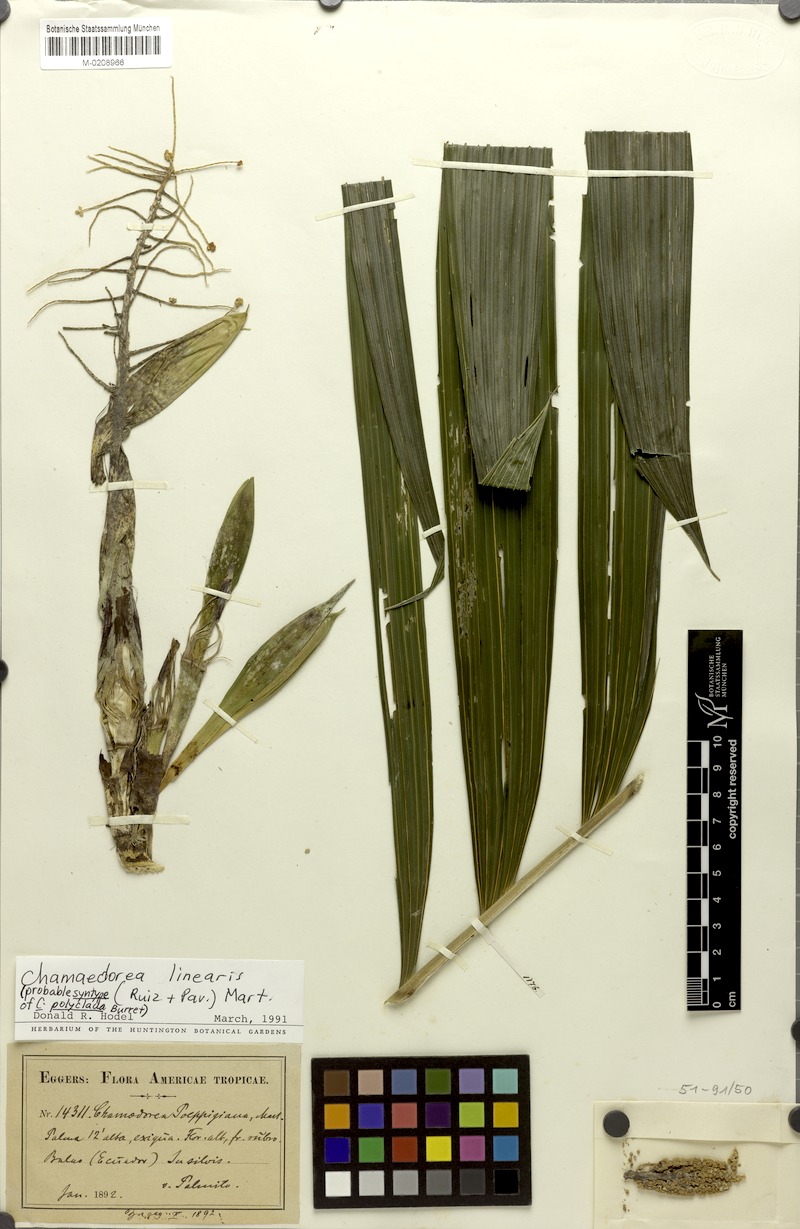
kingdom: Plantae
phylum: Tracheophyta
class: Liliopsida
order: Arecales
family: Arecaceae
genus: Chamaedorea
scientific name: Chamaedorea linearis
